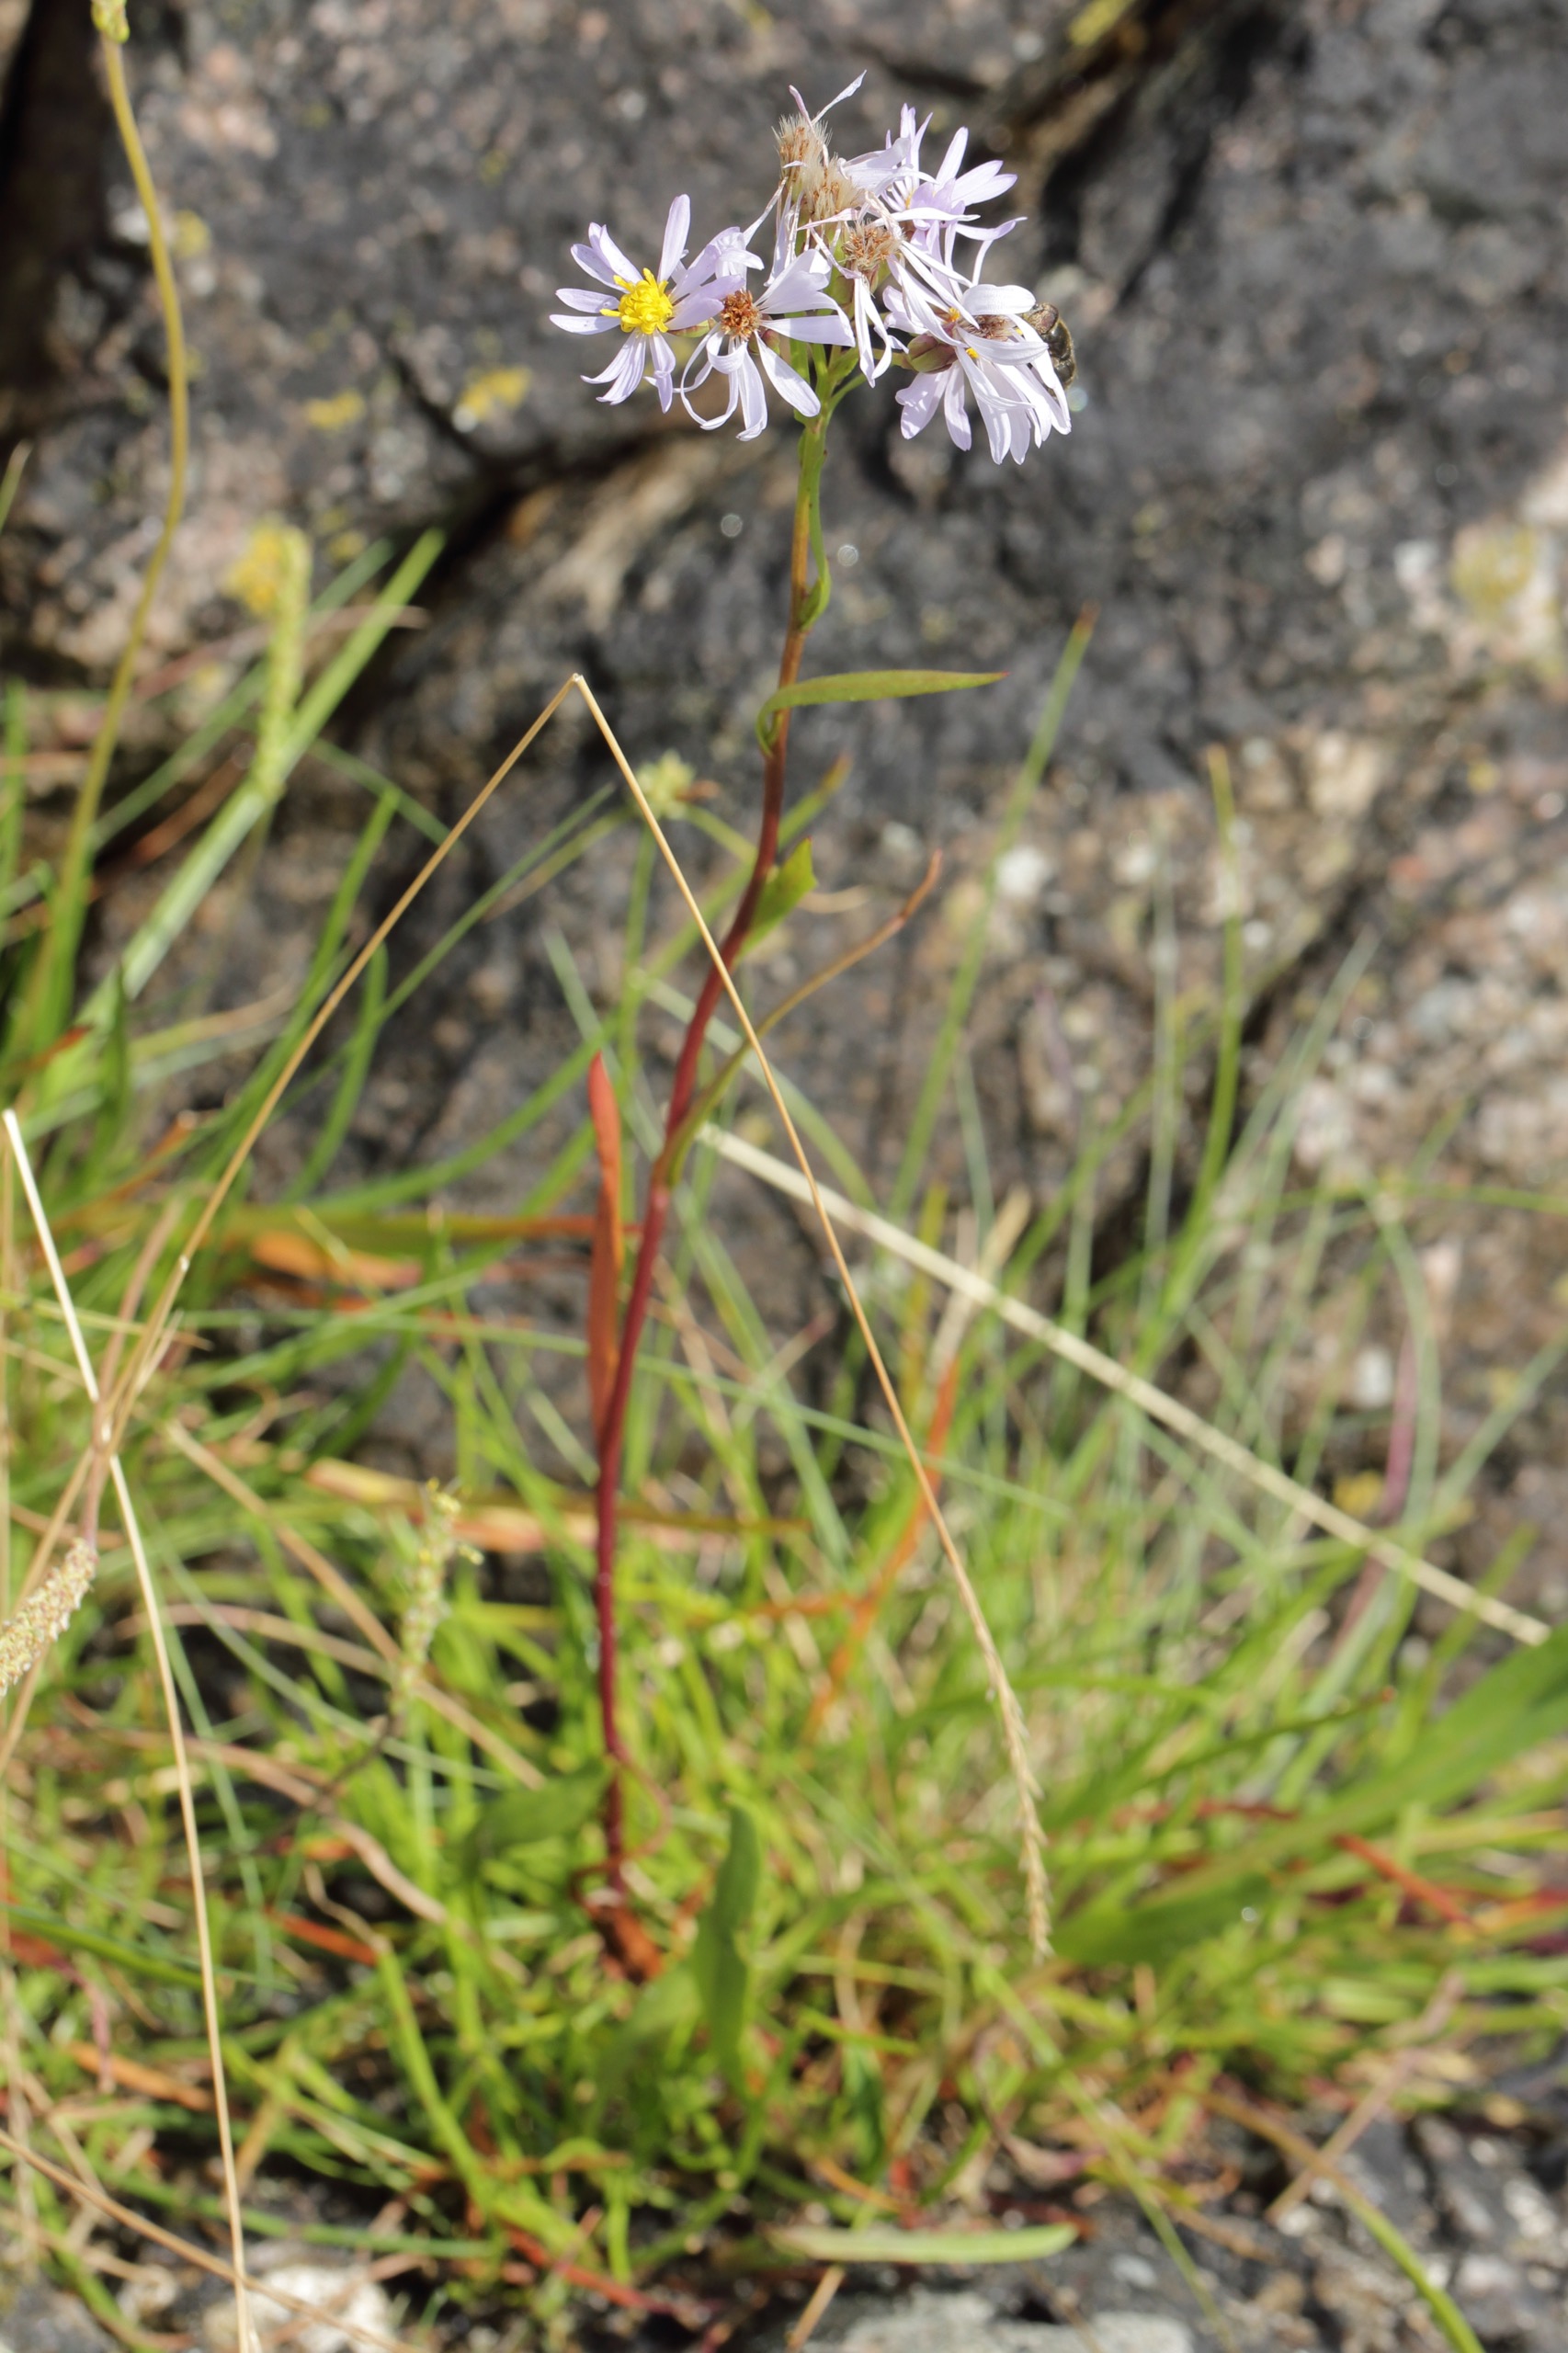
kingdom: Plantae
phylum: Tracheophyta
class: Magnoliopsida
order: Asterales
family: Asteraceae
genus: Tripolium
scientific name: Tripolium pannonicum
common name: Strandasters
